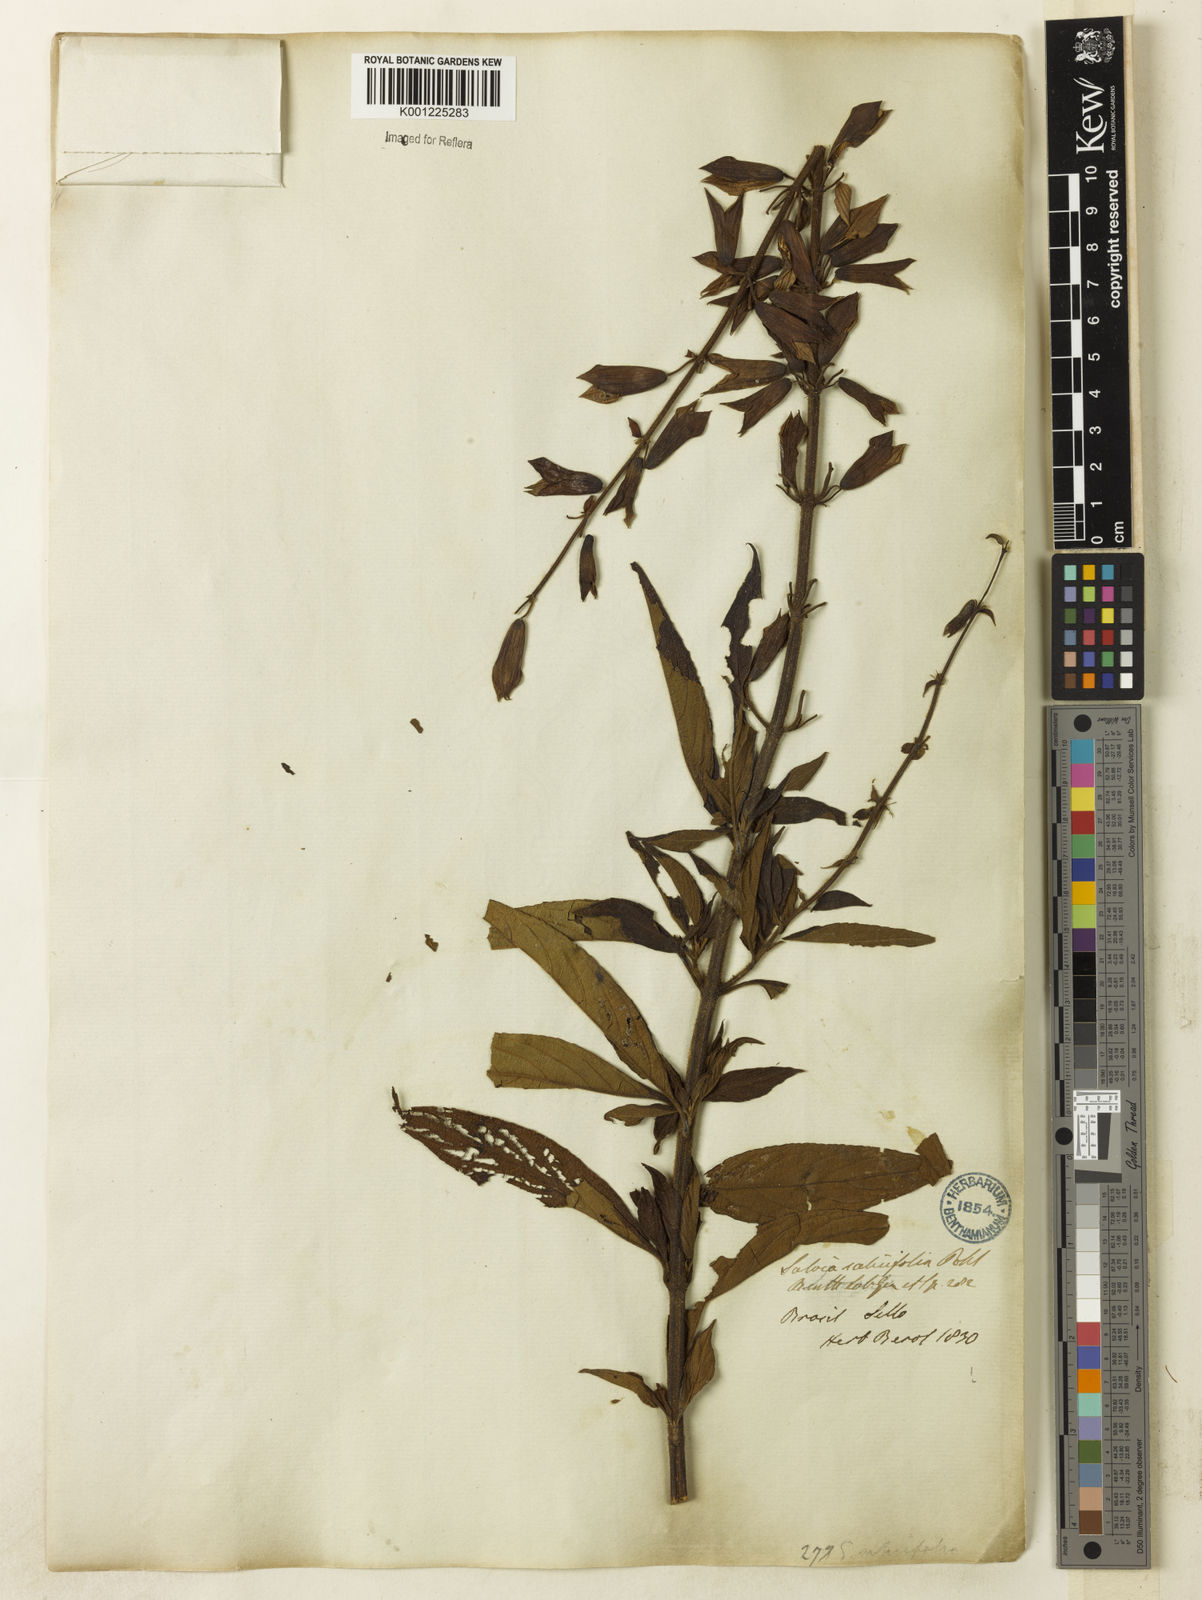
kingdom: Plantae
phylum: Tracheophyta
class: Magnoliopsida
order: Lamiales
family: Lamiaceae
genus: Salvia
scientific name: Salvia salicifolia
